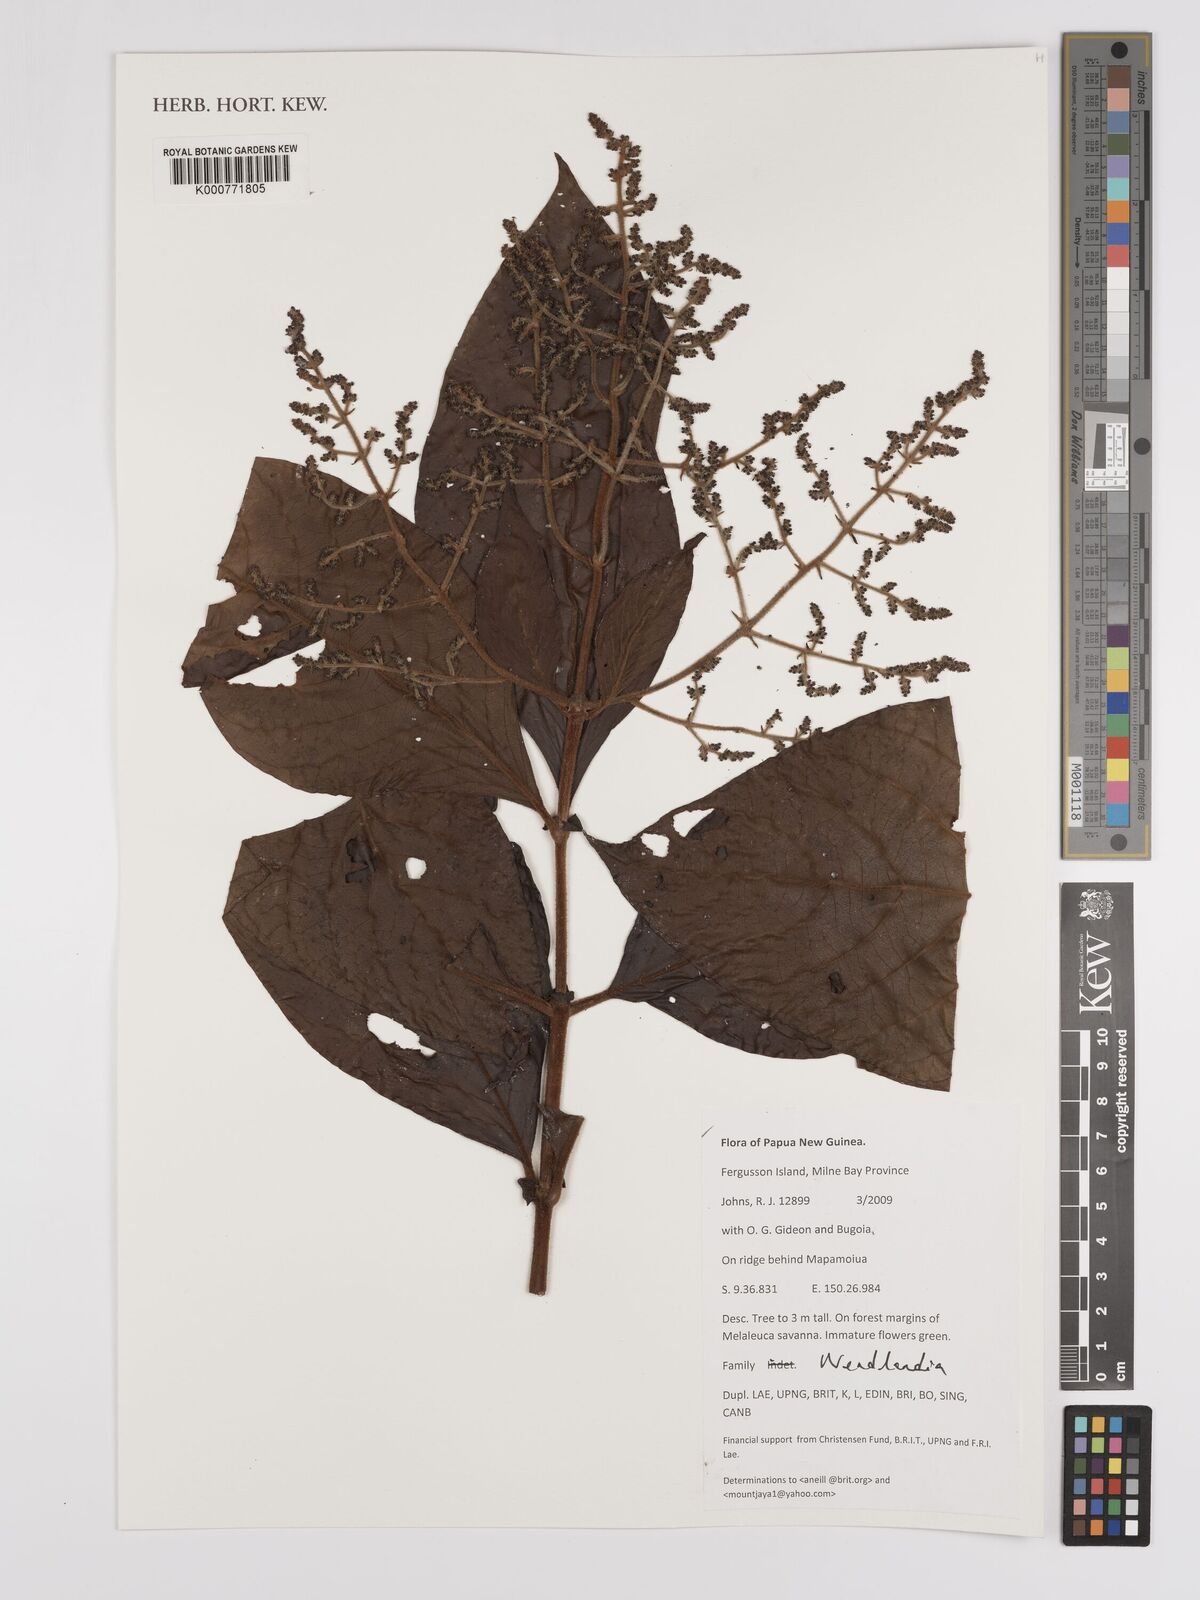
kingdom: Plantae
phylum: Tracheophyta
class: Magnoliopsida
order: Gentianales
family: Rubiaceae
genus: Wendlandia
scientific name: Wendlandia
